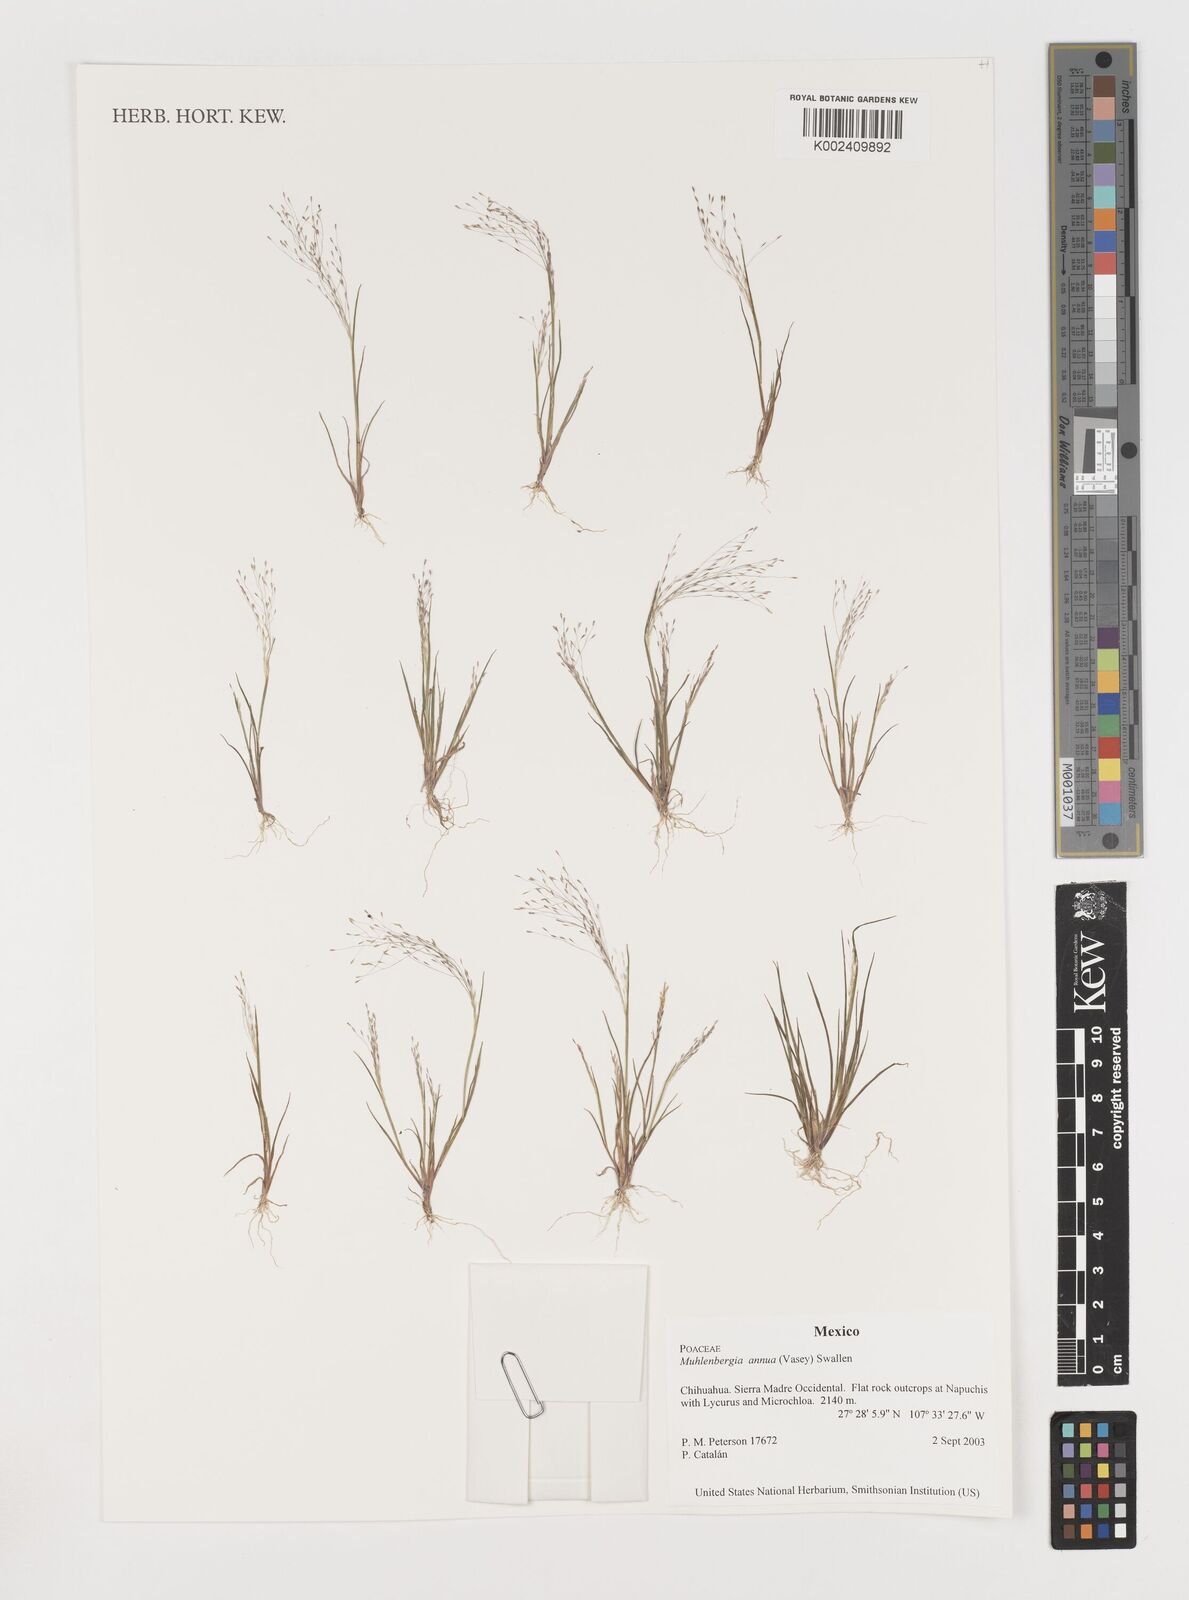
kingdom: Plantae
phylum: Tracheophyta
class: Liliopsida
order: Poales
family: Poaceae
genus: Muhlenbergia
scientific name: Muhlenbergia annua
